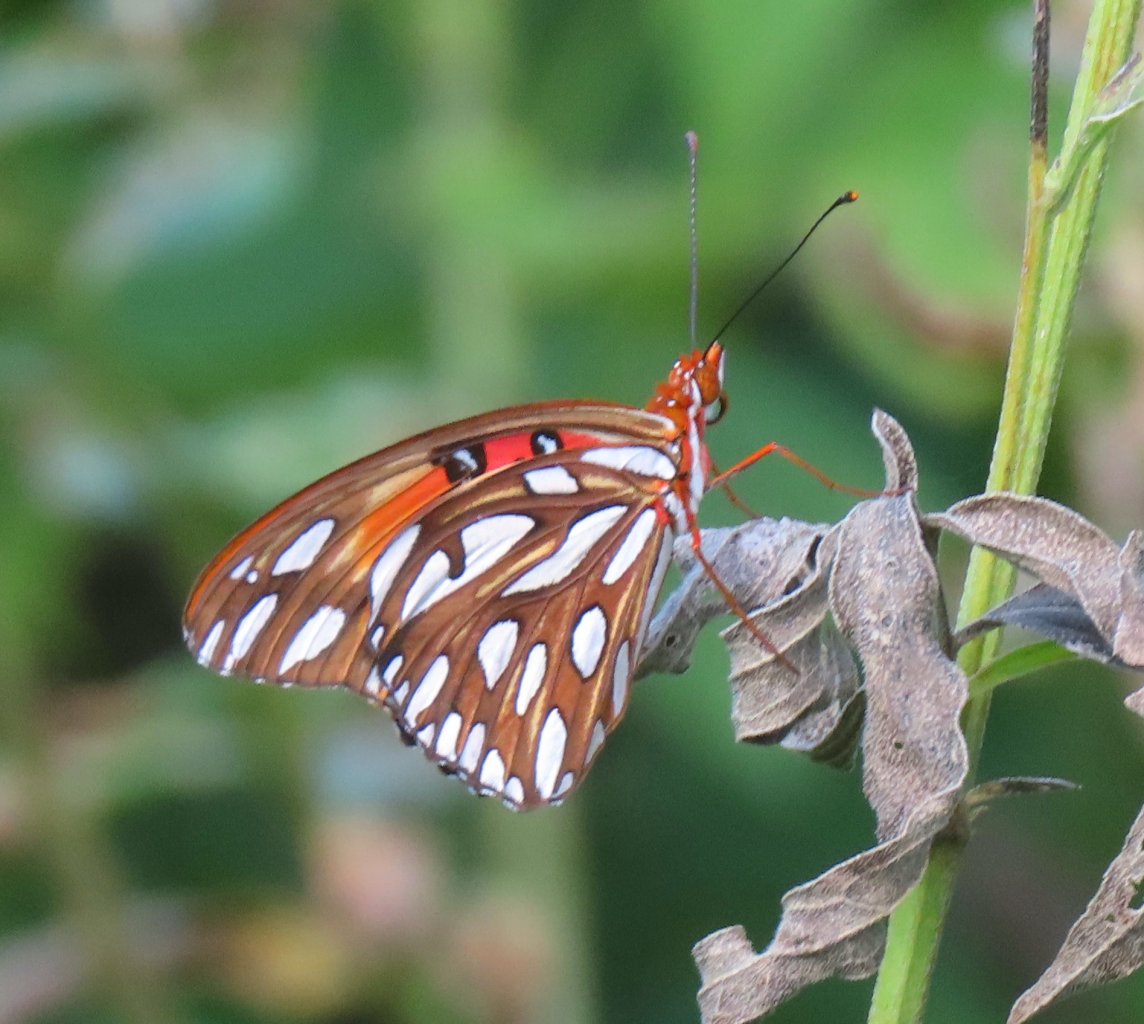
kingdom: Animalia
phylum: Arthropoda
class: Insecta
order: Lepidoptera
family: Nymphalidae
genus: Dione
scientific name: Dione vanillae
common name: Gulf Fritillary
